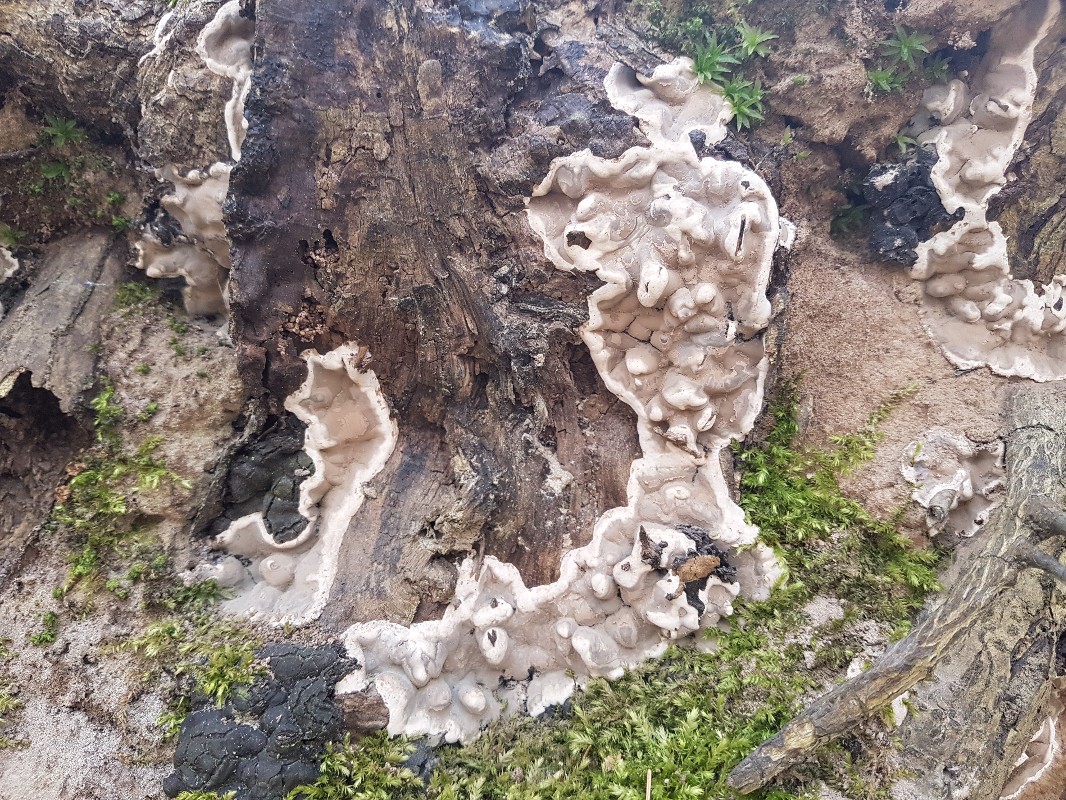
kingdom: Fungi
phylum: Ascomycota
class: Sordariomycetes
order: Xylariales
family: Xylariaceae
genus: Kretzschmaria
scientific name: Kretzschmaria deusta
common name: stor kulsvamp
